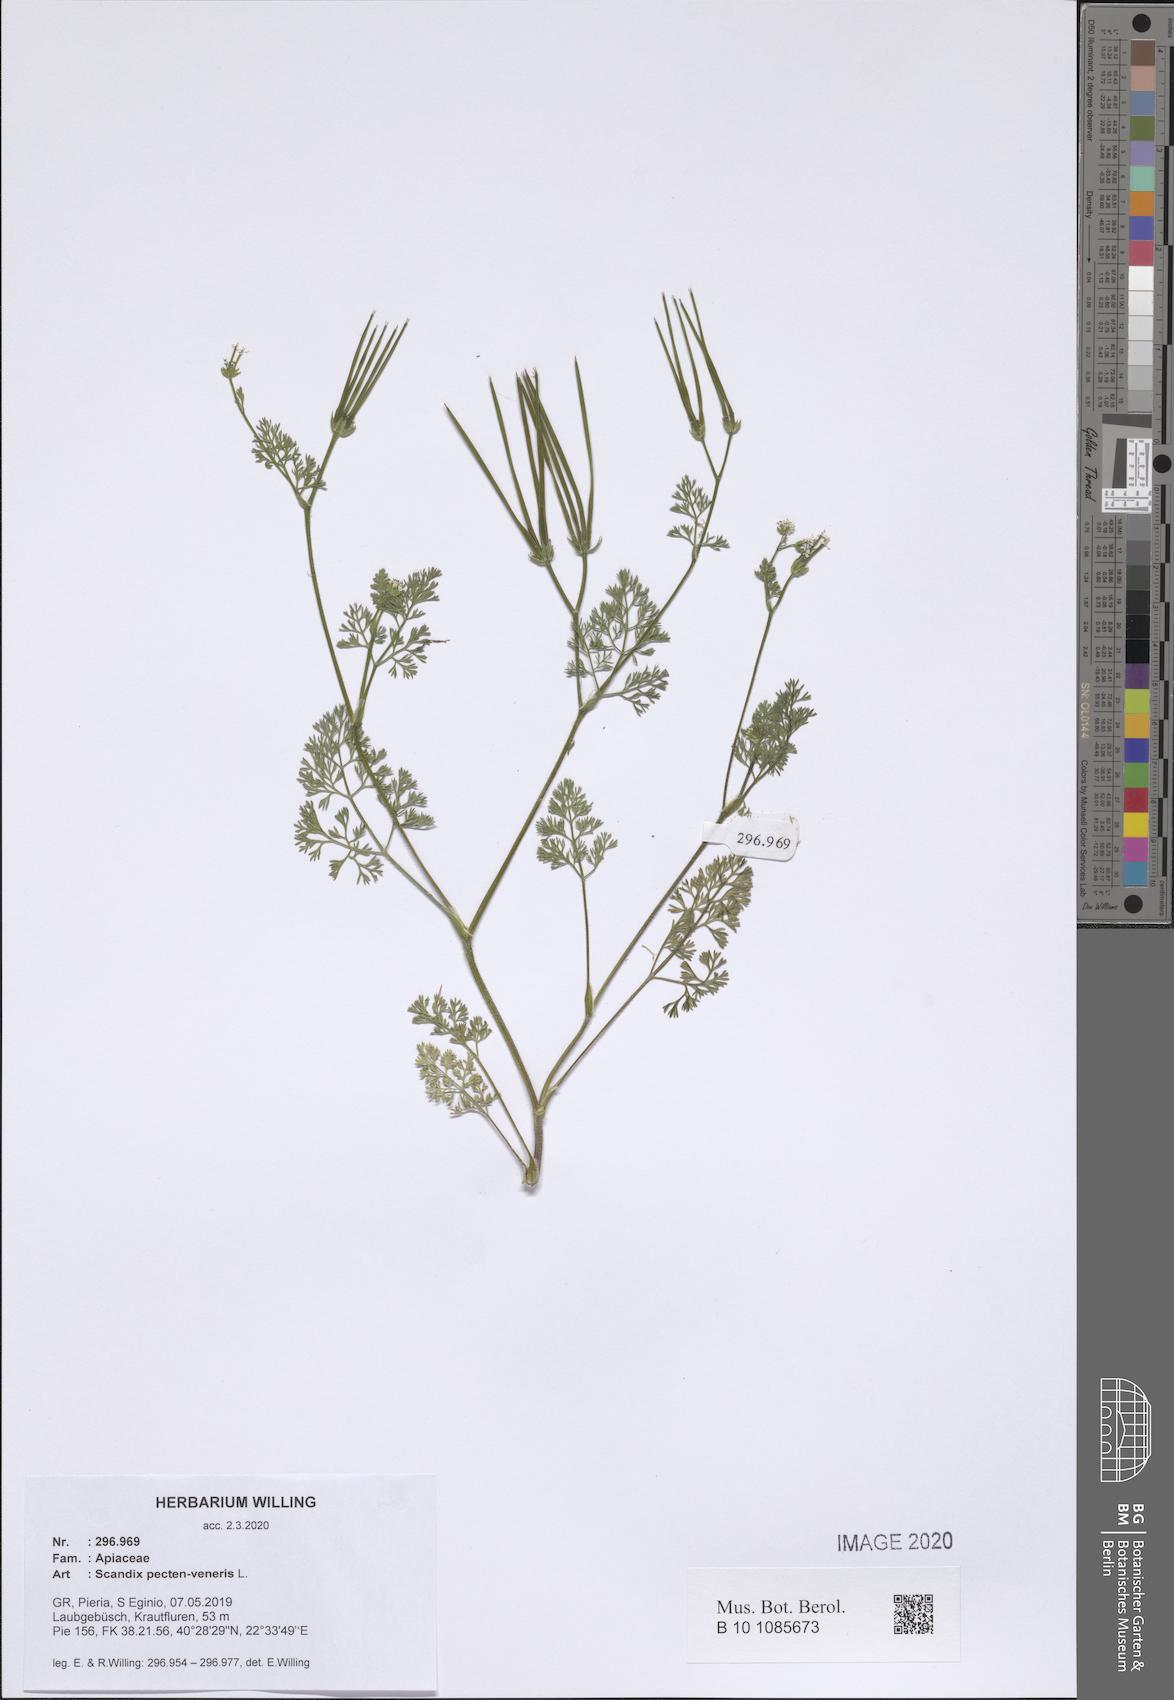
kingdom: Plantae
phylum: Tracheophyta
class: Magnoliopsida
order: Apiales
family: Apiaceae
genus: Scandix
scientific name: Scandix pecten-veneris
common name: Shepherd's-needle
